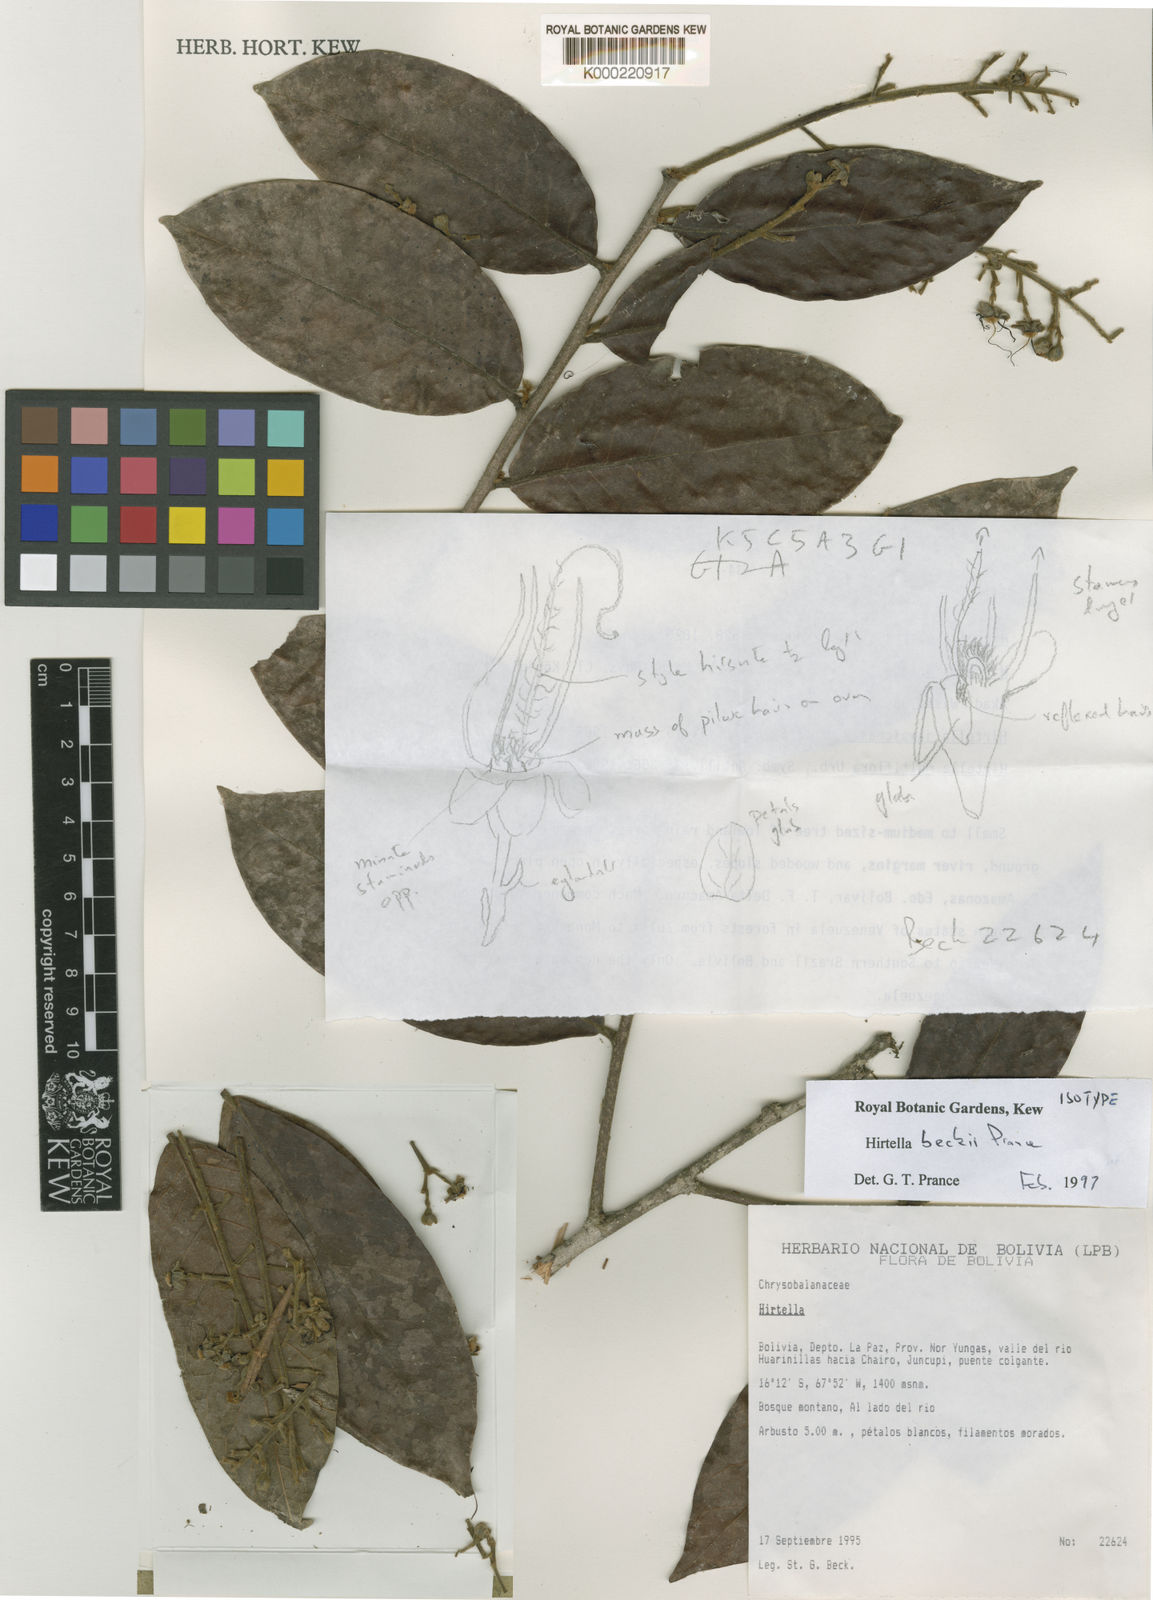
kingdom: Plantae
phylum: Tracheophyta
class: Magnoliopsida
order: Malpighiales
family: Chrysobalanaceae
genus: Hirtella
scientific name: Hirtella beckii
